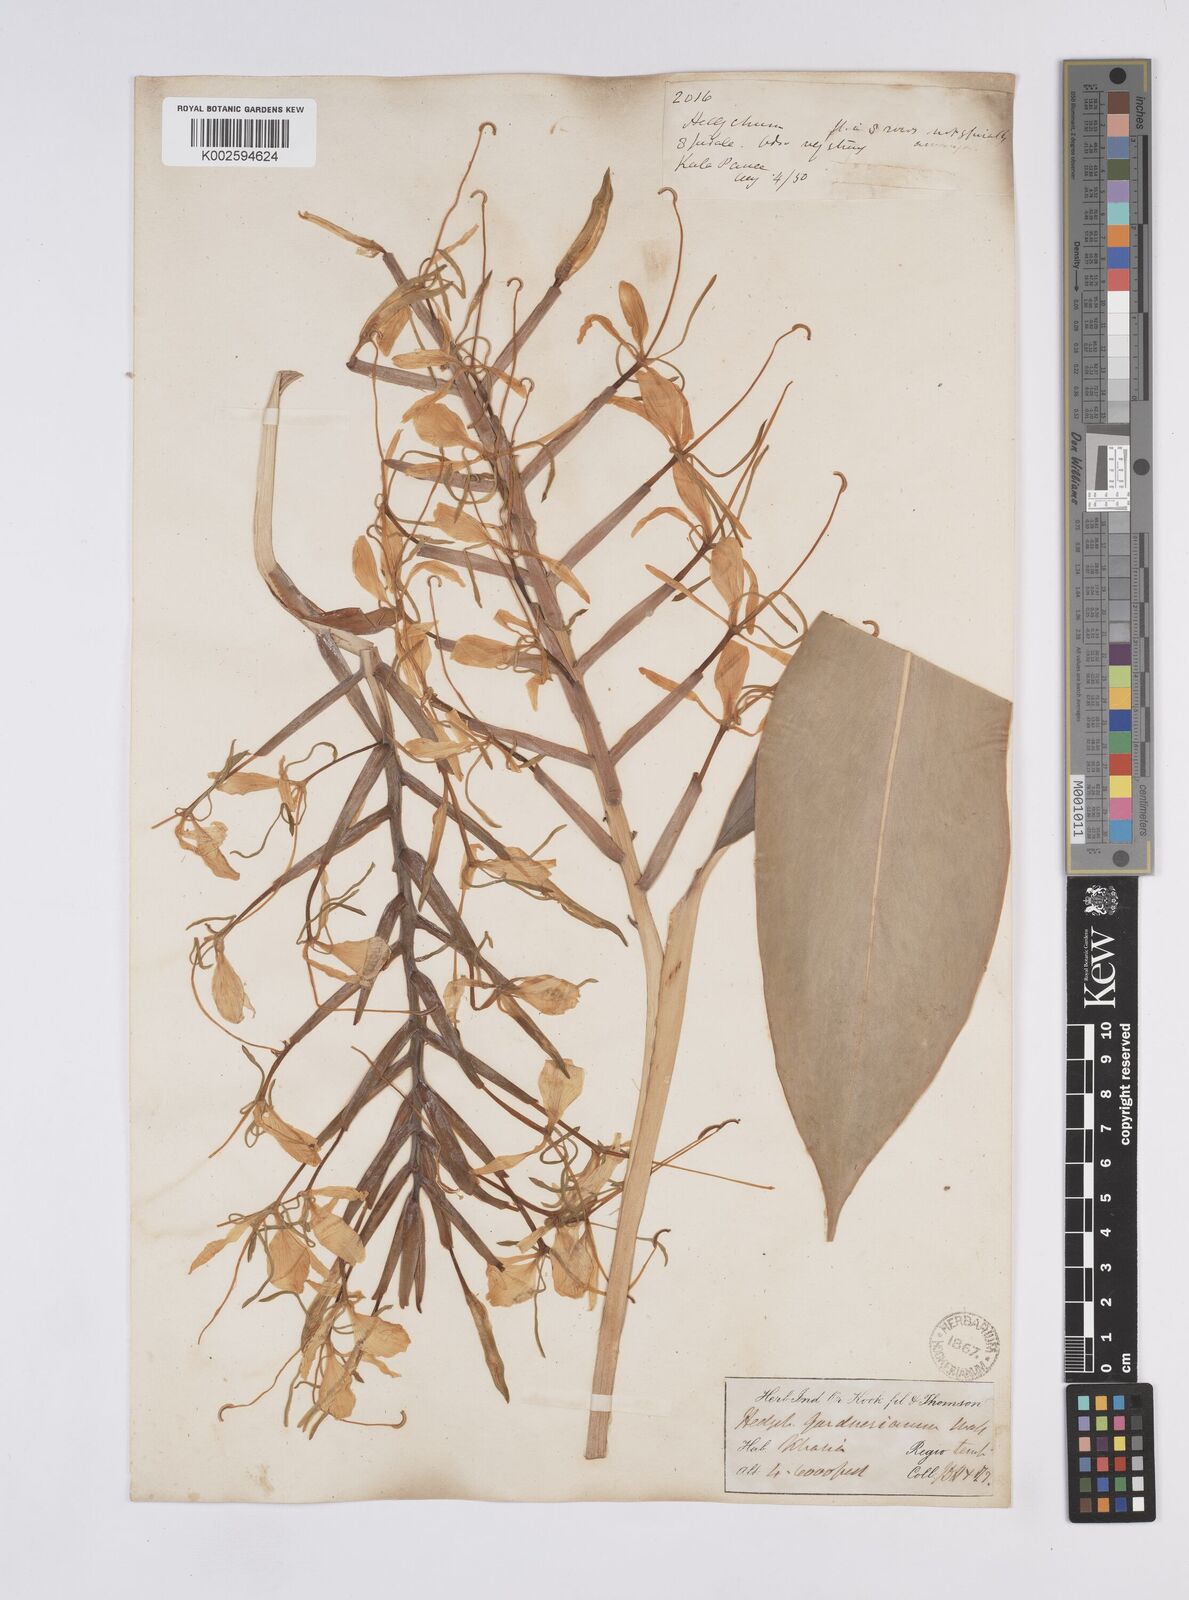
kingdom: Plantae
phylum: Tracheophyta
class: Liliopsida
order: Zingiberales
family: Zingiberaceae
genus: Hedychium
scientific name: Hedychium gardnerianum
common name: Himalayan ginger
